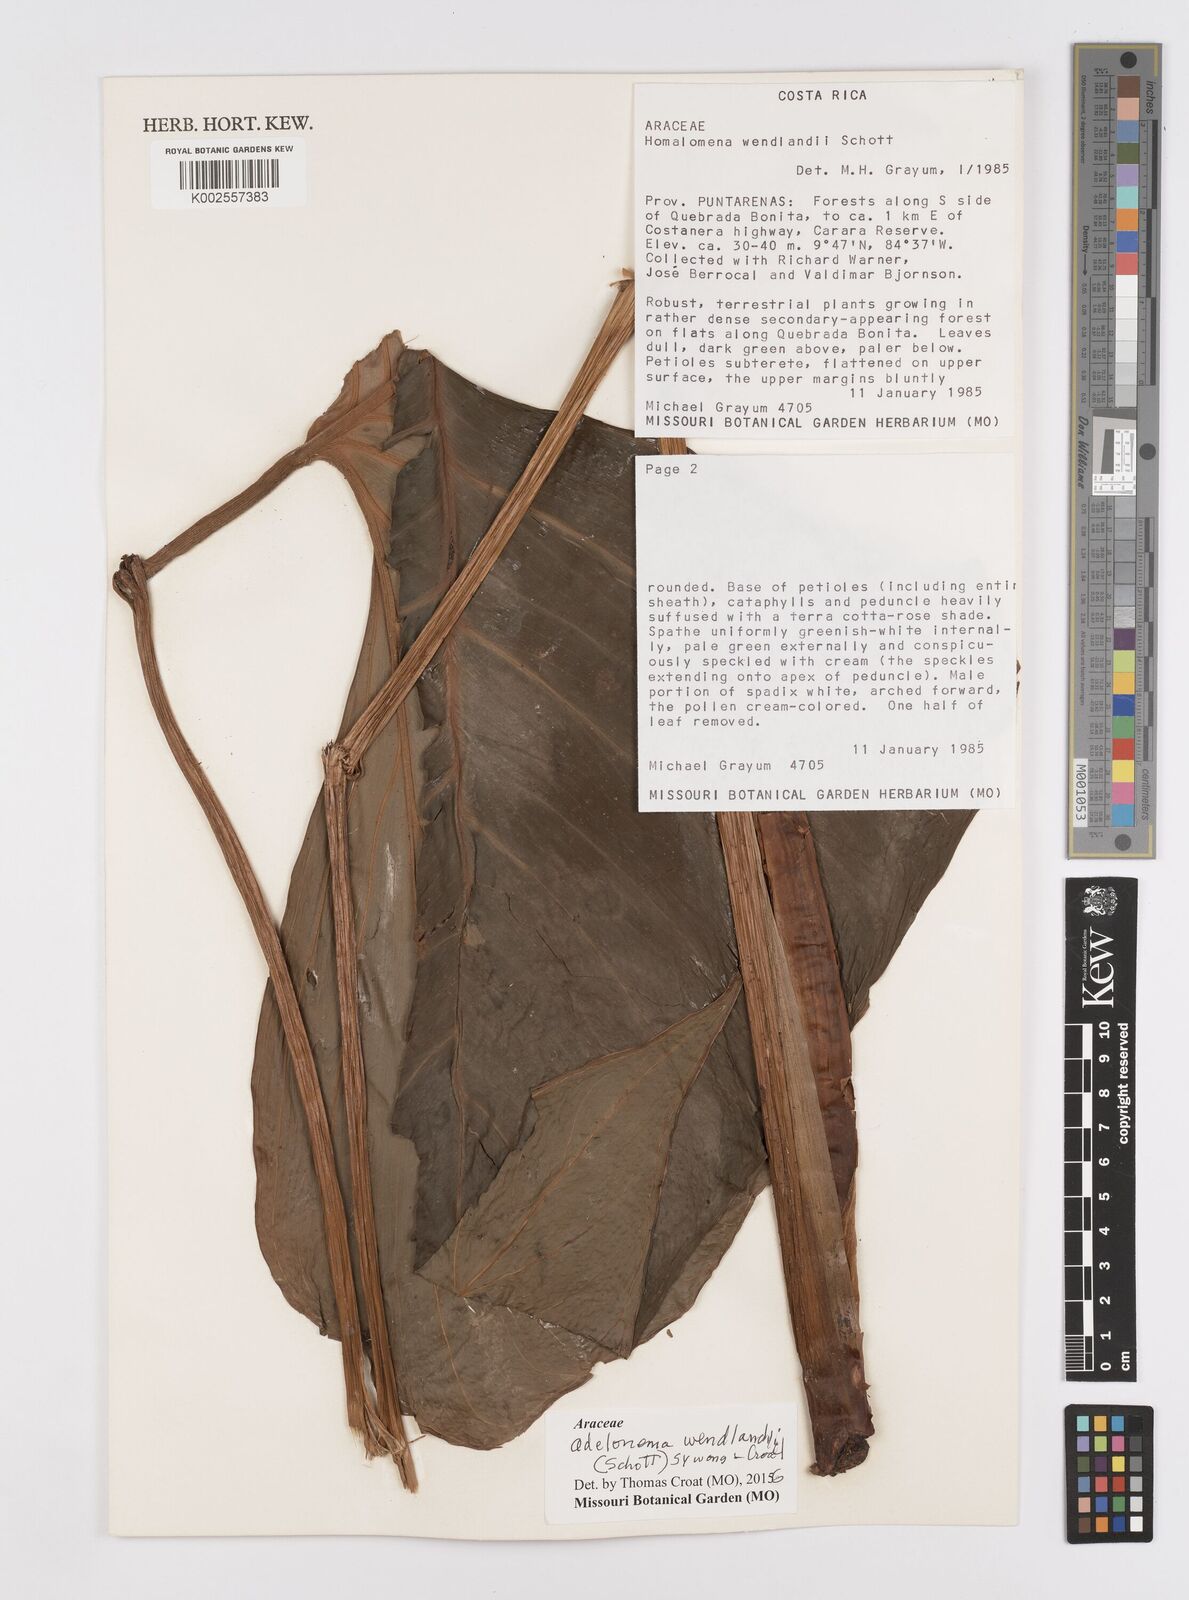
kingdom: Plantae
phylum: Tracheophyta
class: Liliopsida
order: Alismatales
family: Araceae
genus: Adelonema
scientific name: Adelonema wendlandii
